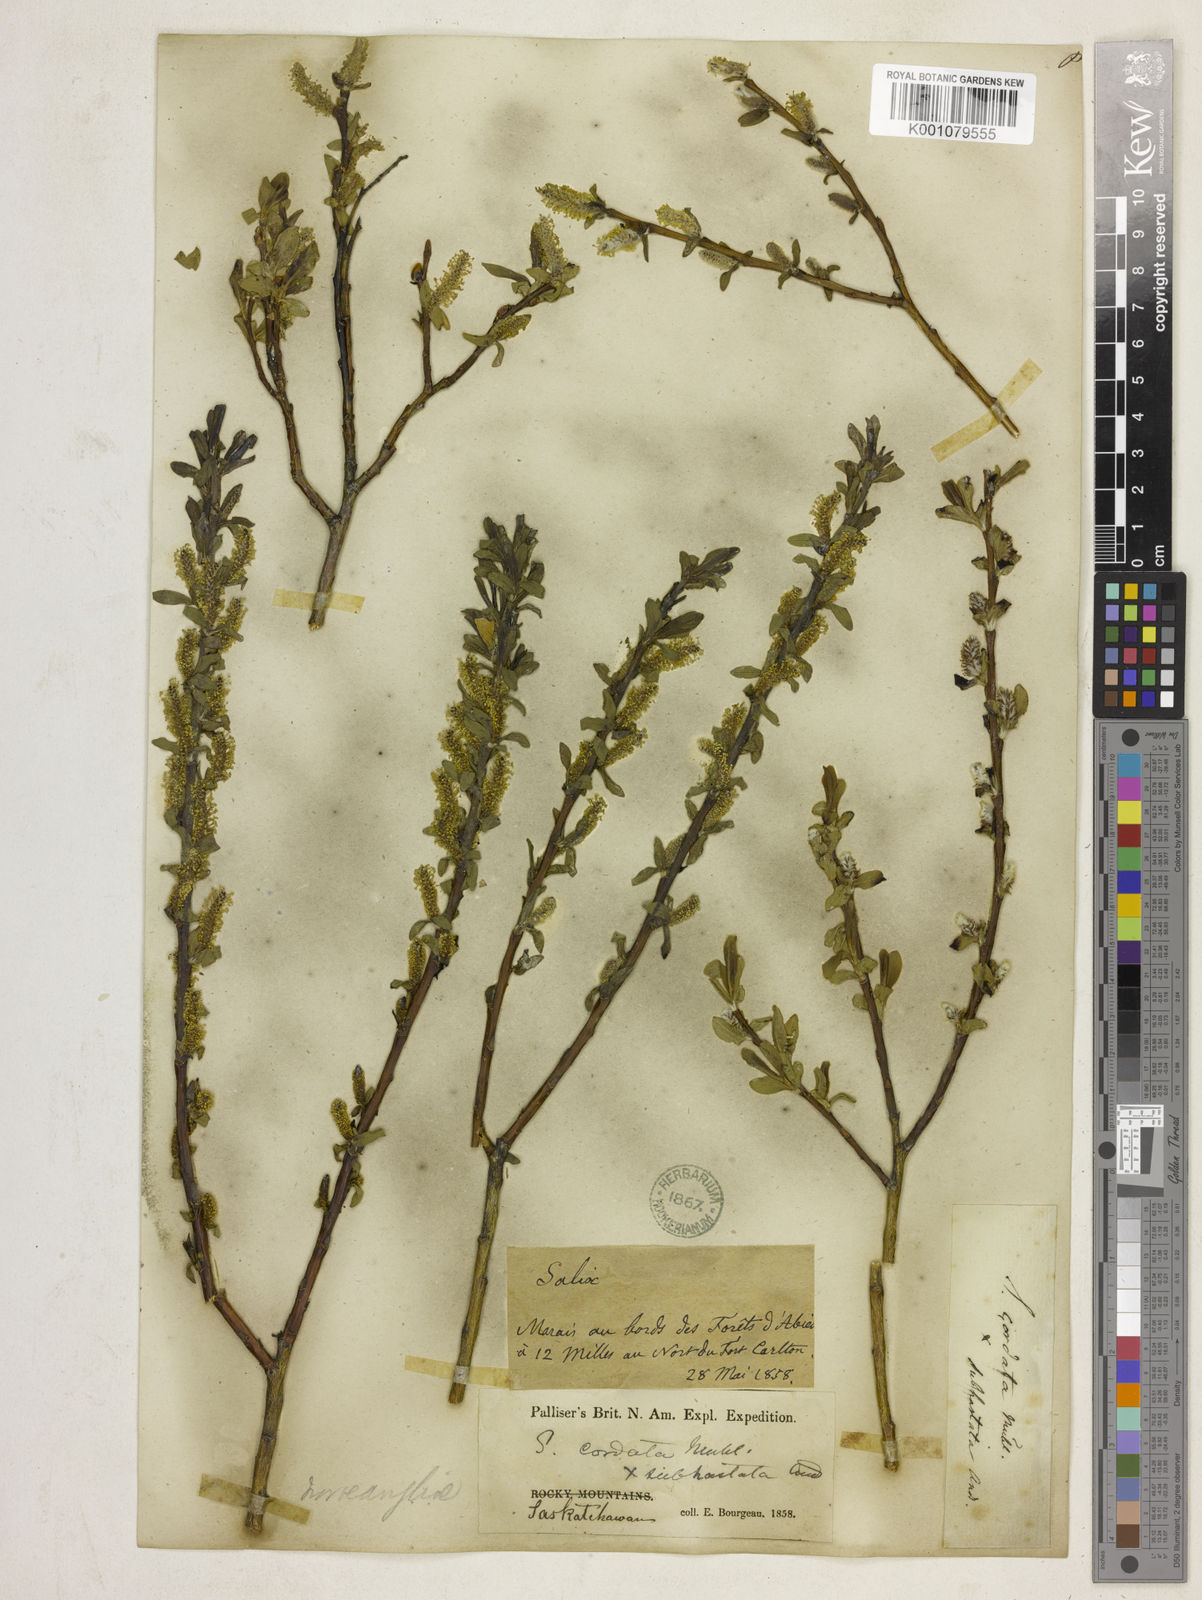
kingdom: Plantae
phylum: Tracheophyta
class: Magnoliopsida
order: Malpighiales
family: Salicaceae
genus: Salix
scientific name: Salix myrtillifolia
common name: Bilberry willow
